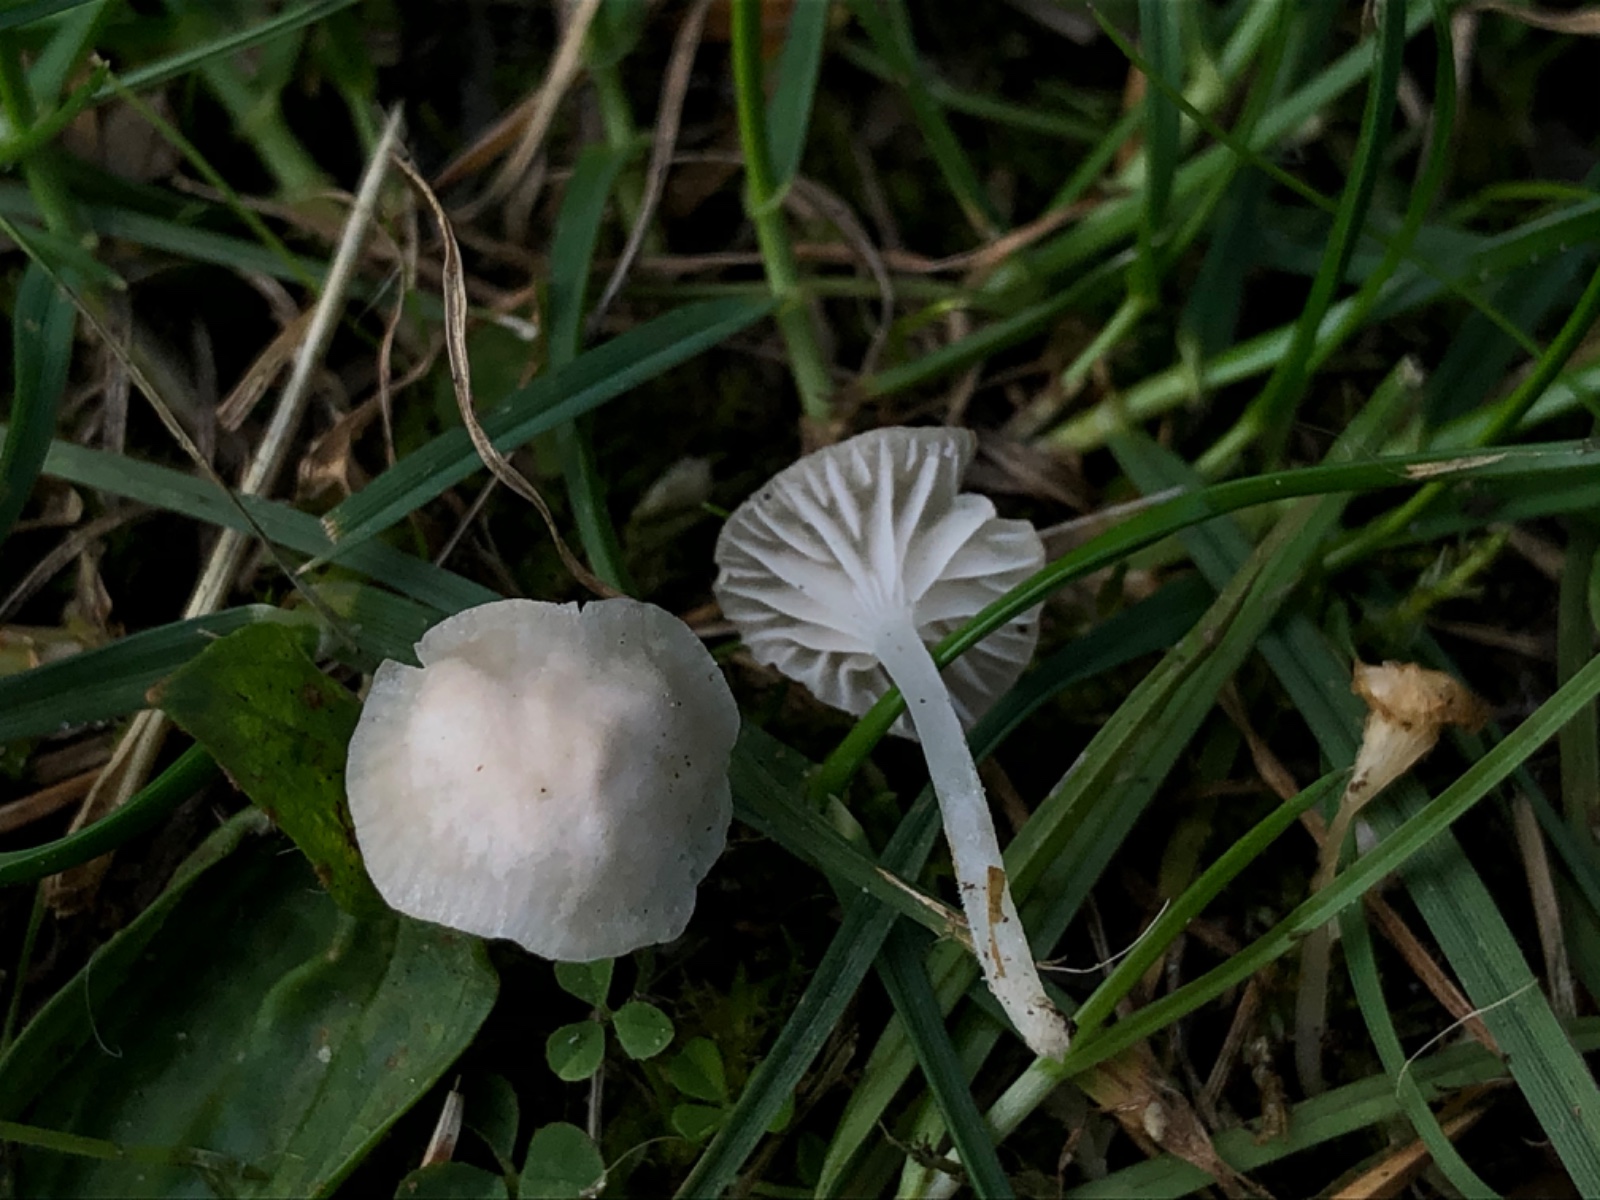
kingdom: Fungi
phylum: Basidiomycota
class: Agaricomycetes
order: Agaricales
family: Mycenaceae
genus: Hemimycena
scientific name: Hemimycena mairei
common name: voks-huesvamp
